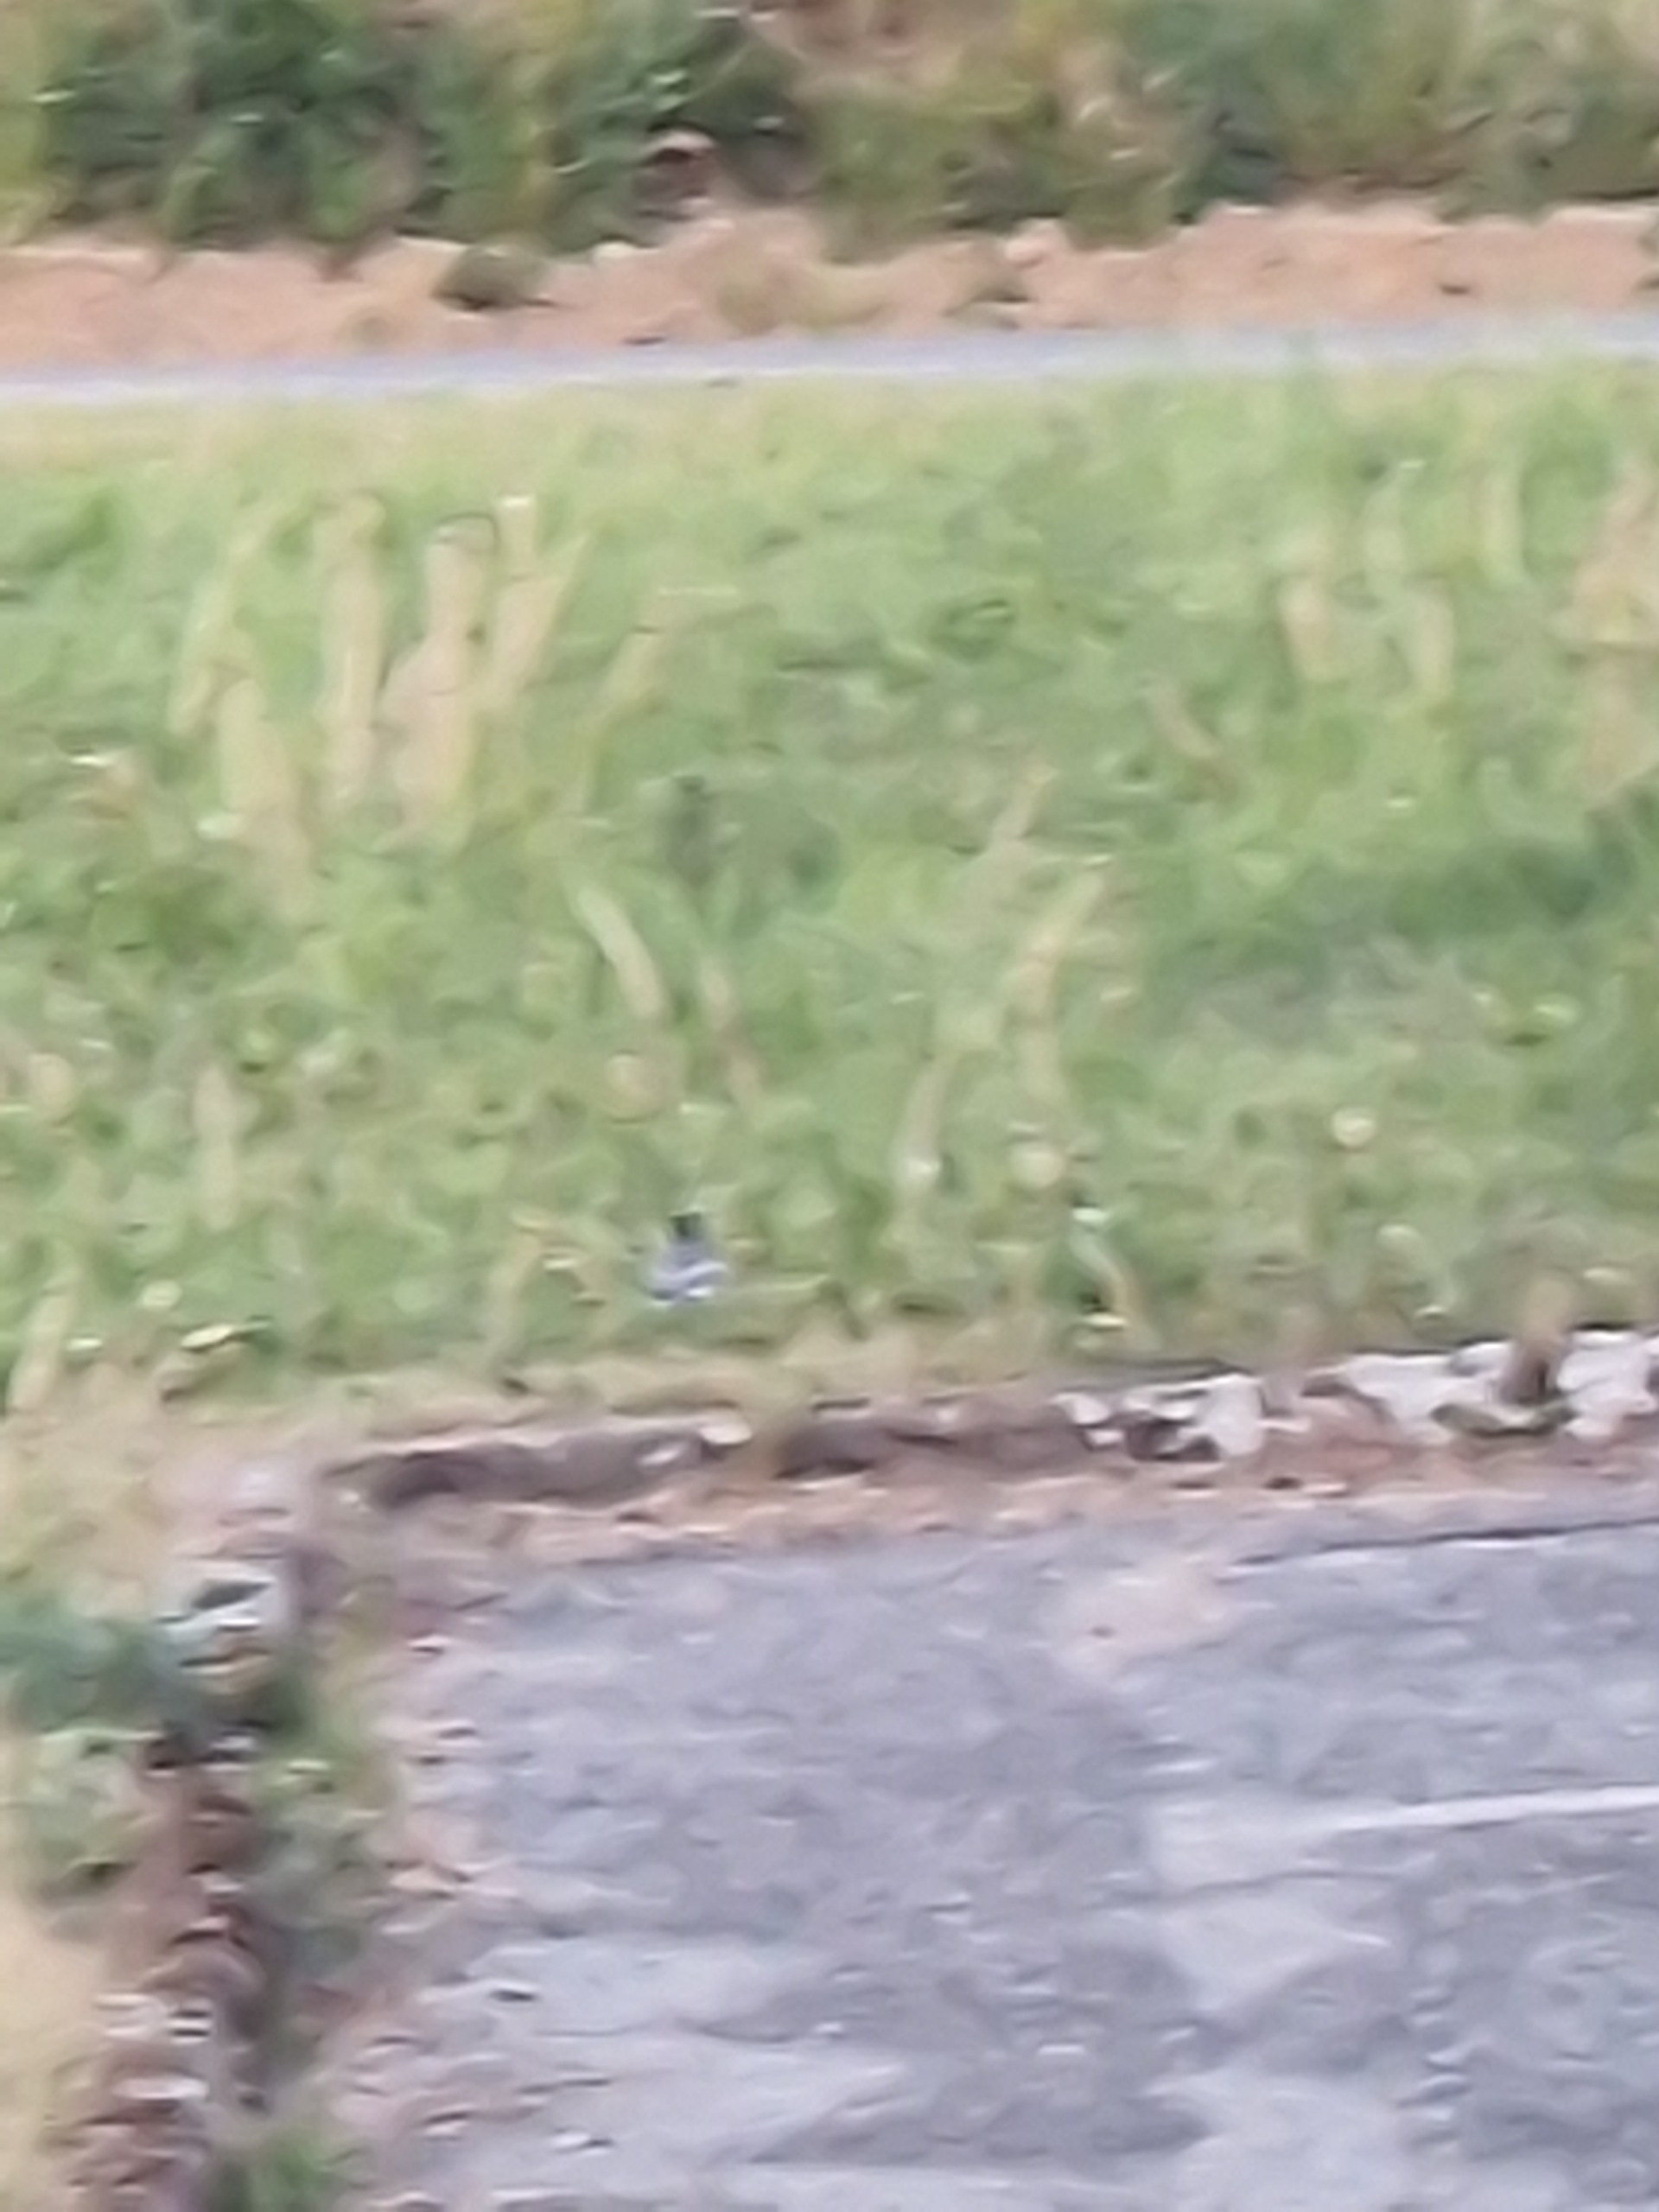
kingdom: Animalia
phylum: Chordata
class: Aves
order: Passeriformes
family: Motacillidae
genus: Motacilla
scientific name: Motacilla alba
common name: Hvid vipstjert
